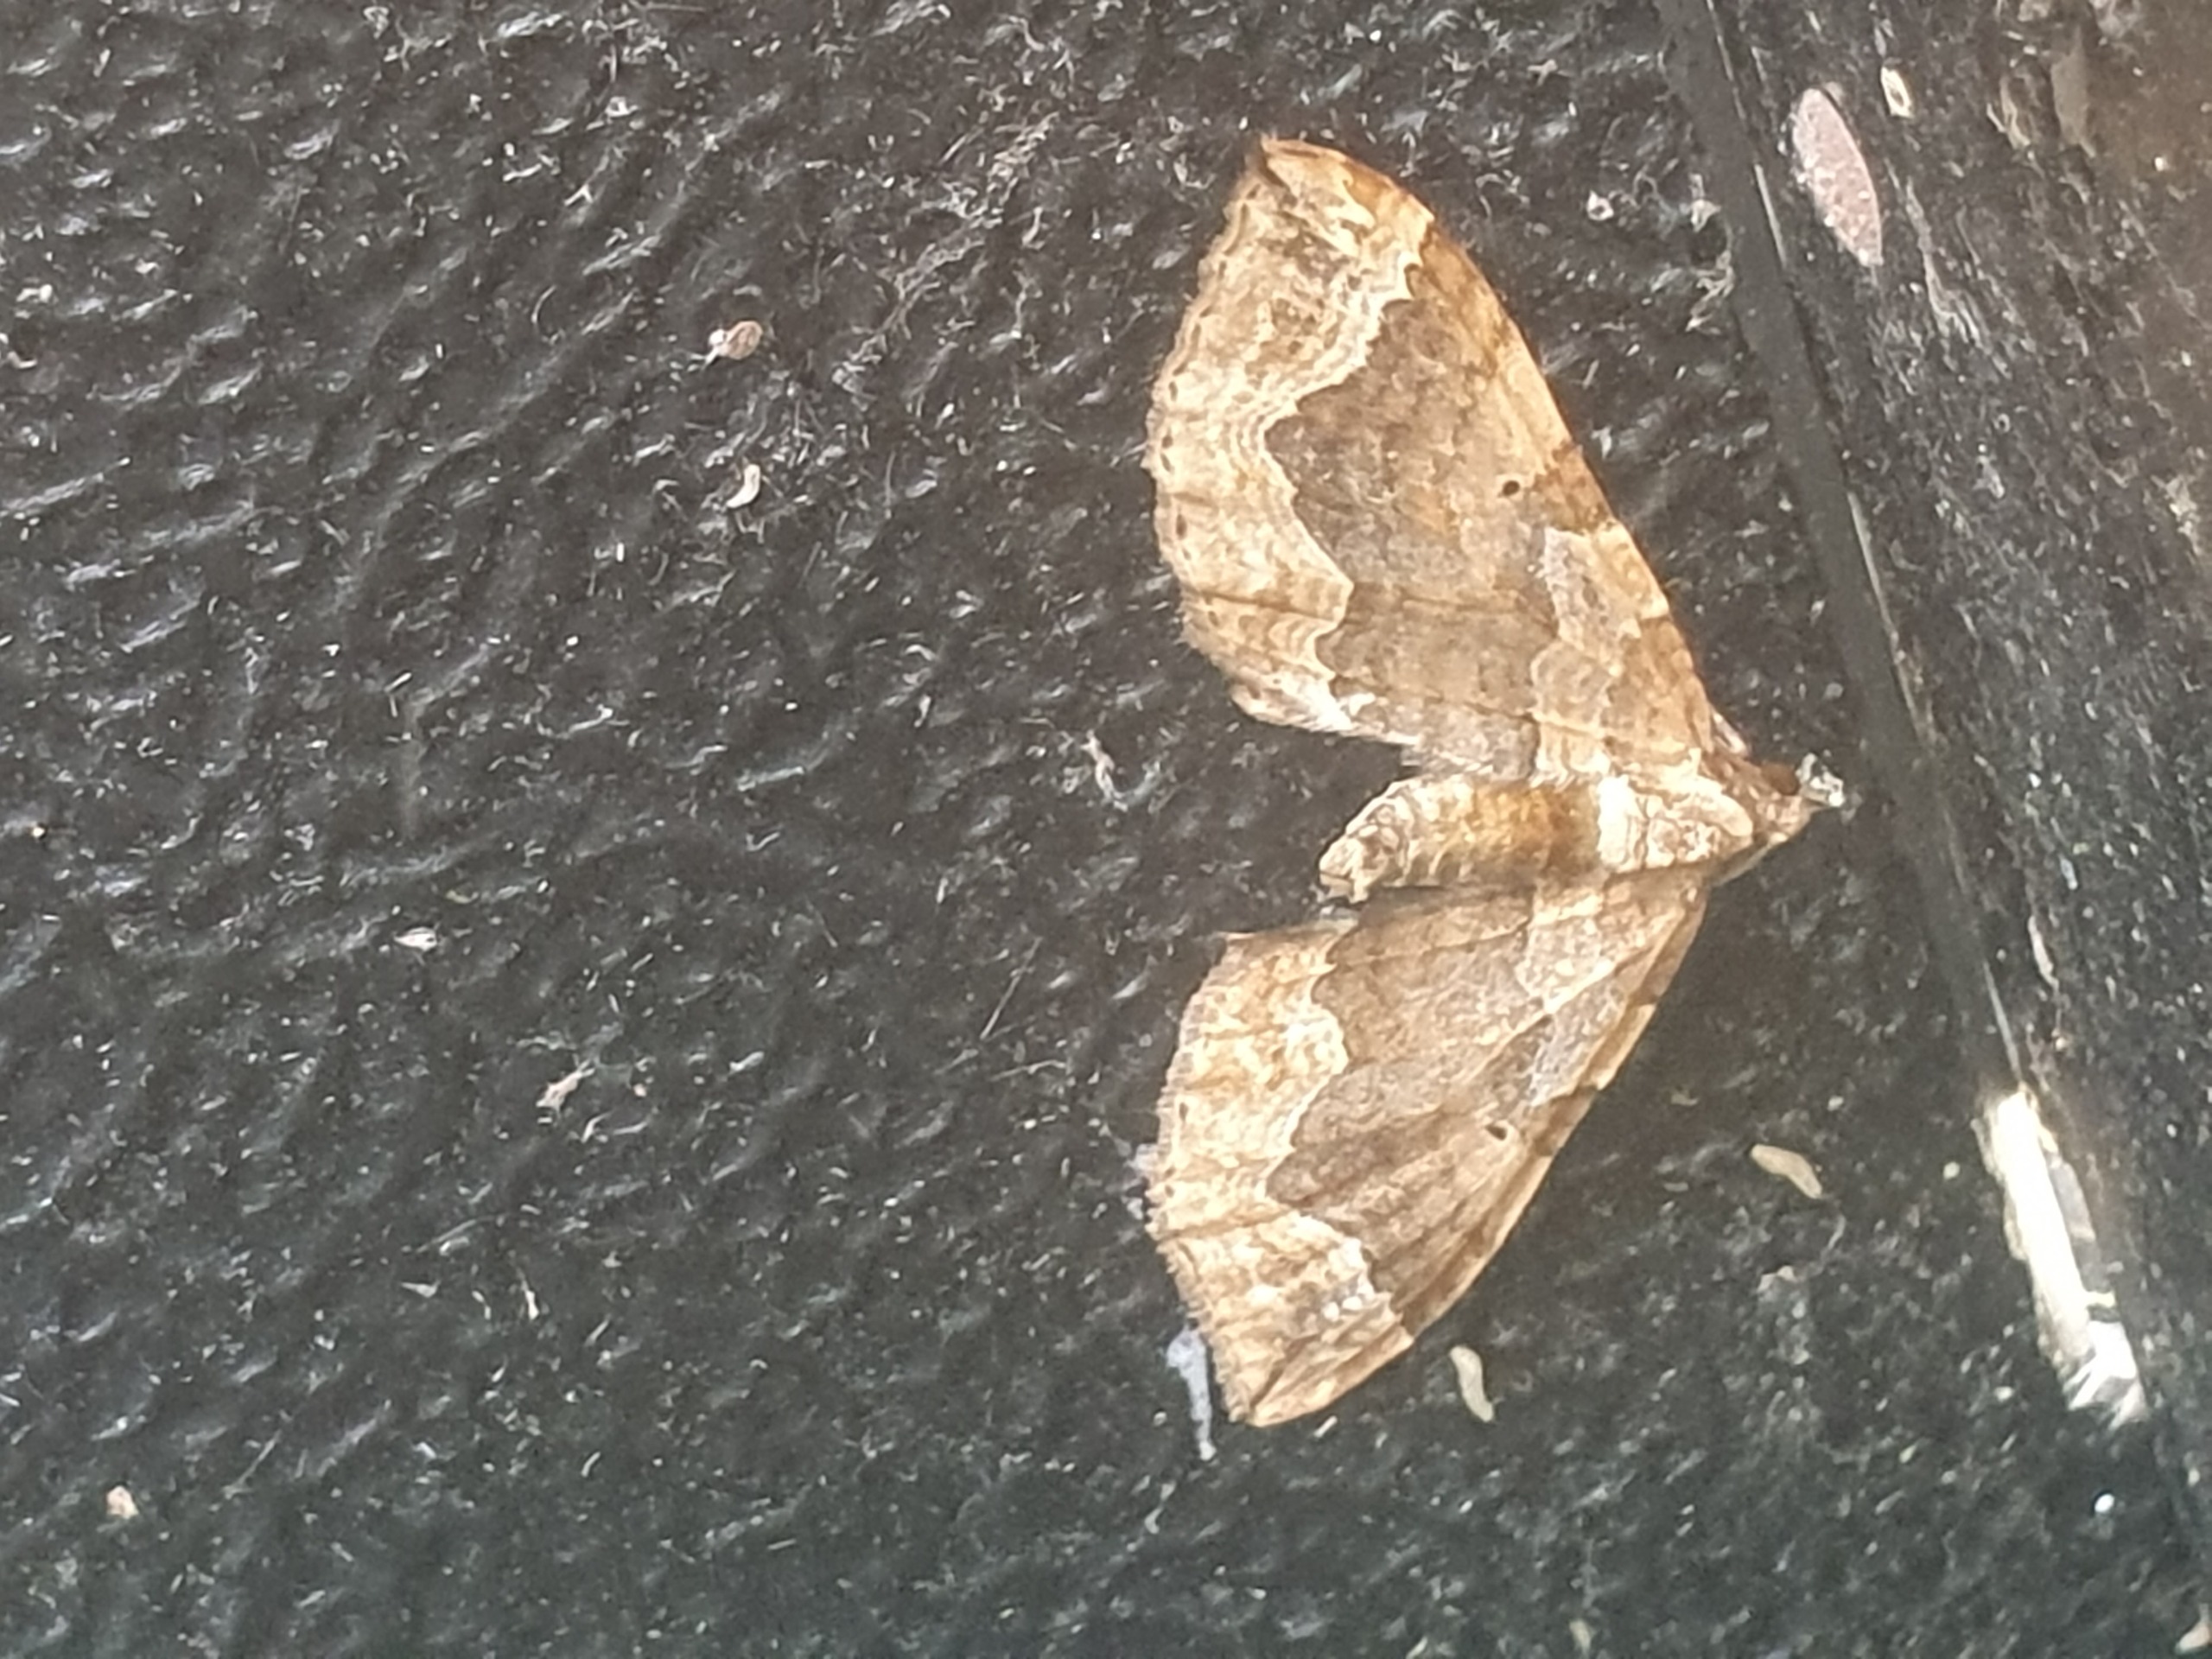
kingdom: Animalia
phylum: Arthropoda
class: Insecta
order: Lepidoptera
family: Geometridae
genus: Pelurga
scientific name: Pelurga comitata
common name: Gåsefod-bladmåler
